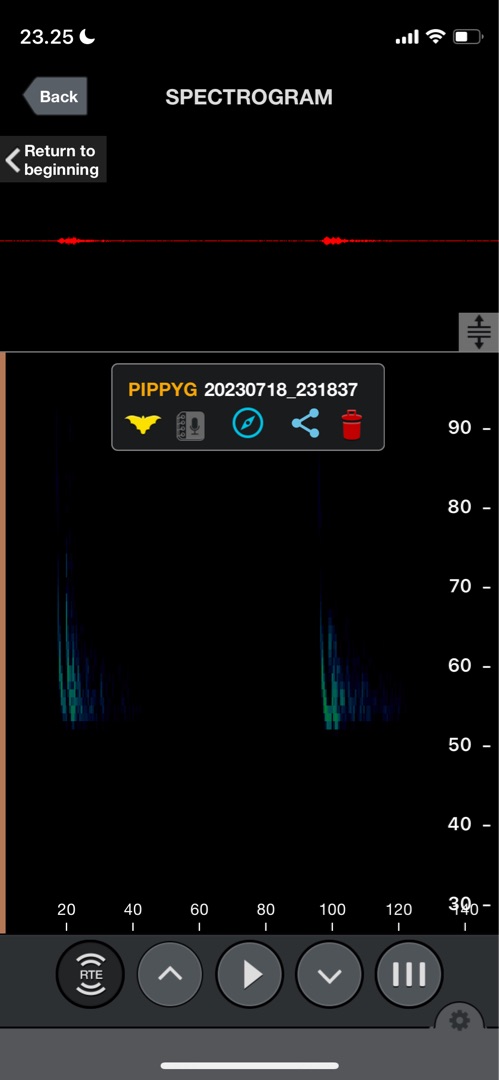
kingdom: Animalia
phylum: Chordata
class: Mammalia
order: Chiroptera
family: Vespertilionidae
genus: Pipistrellus
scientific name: Pipistrellus pygmaeus
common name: Dværgflagermus
